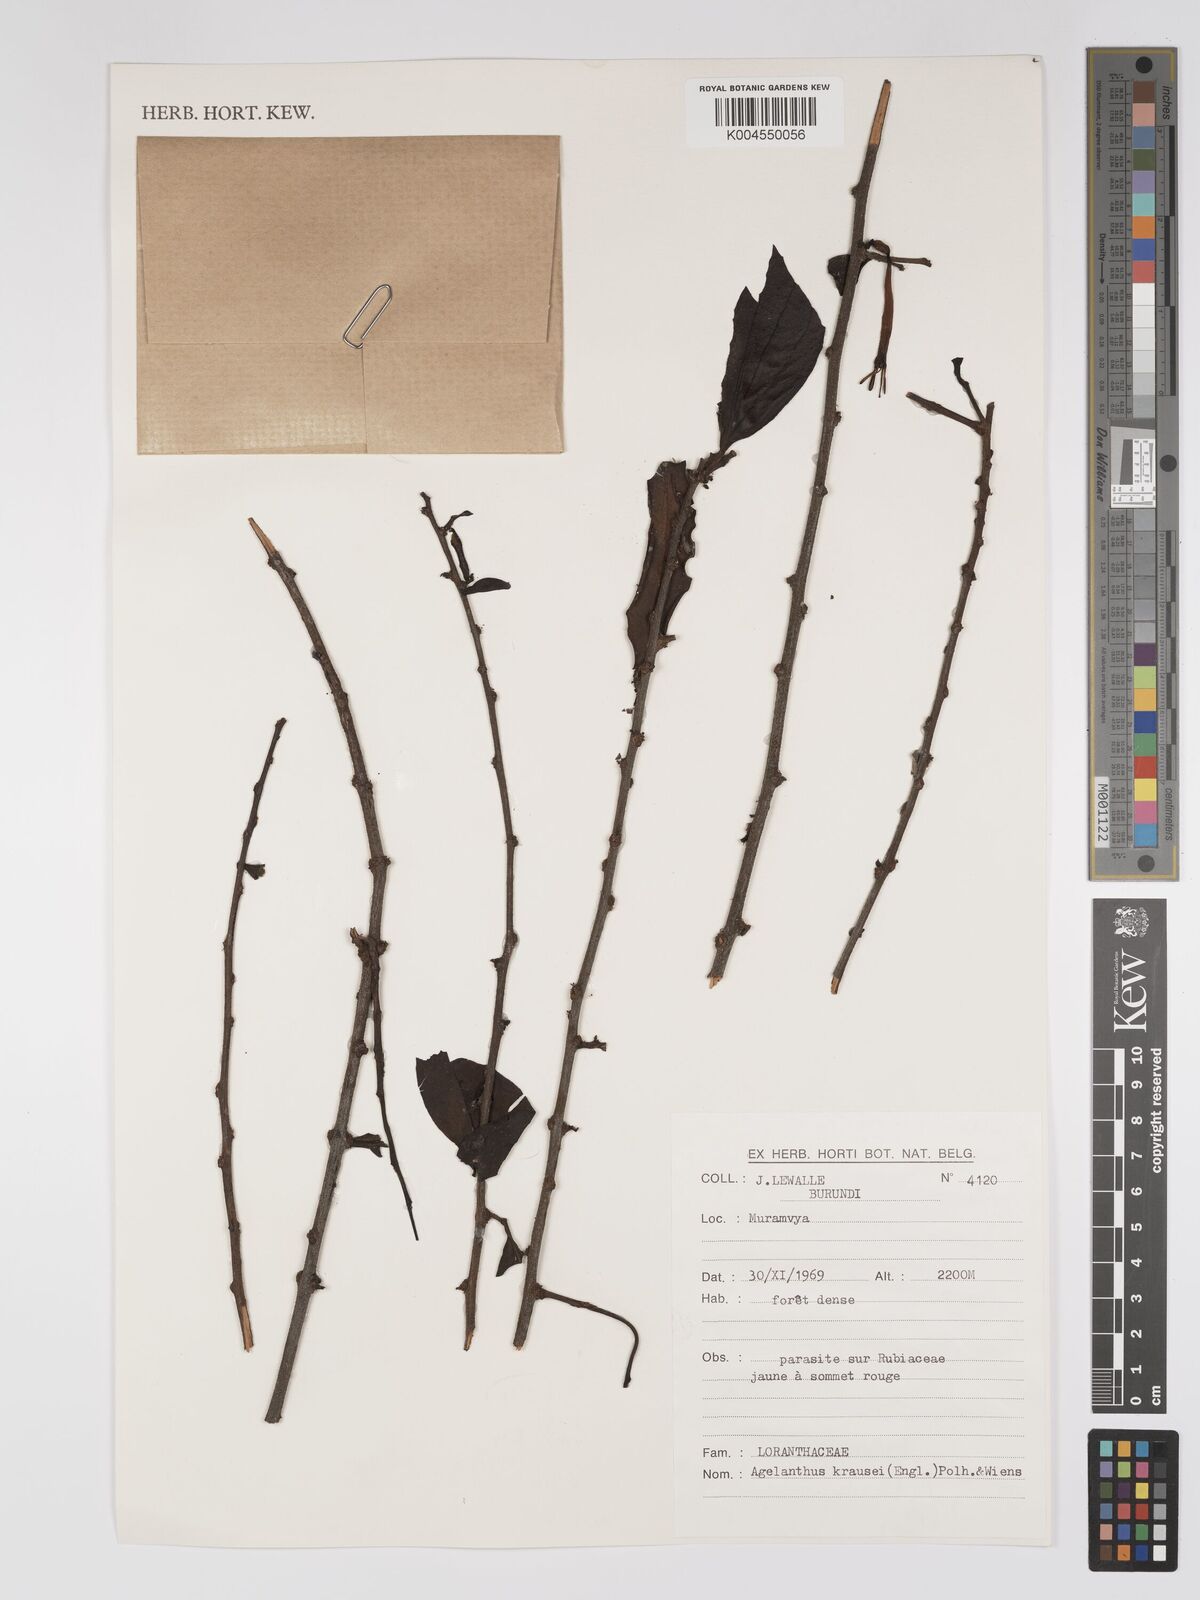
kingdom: Plantae
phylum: Tracheophyta
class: Magnoliopsida
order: Santalales
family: Loranthaceae
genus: Agelanthus
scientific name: Agelanthus krausei
